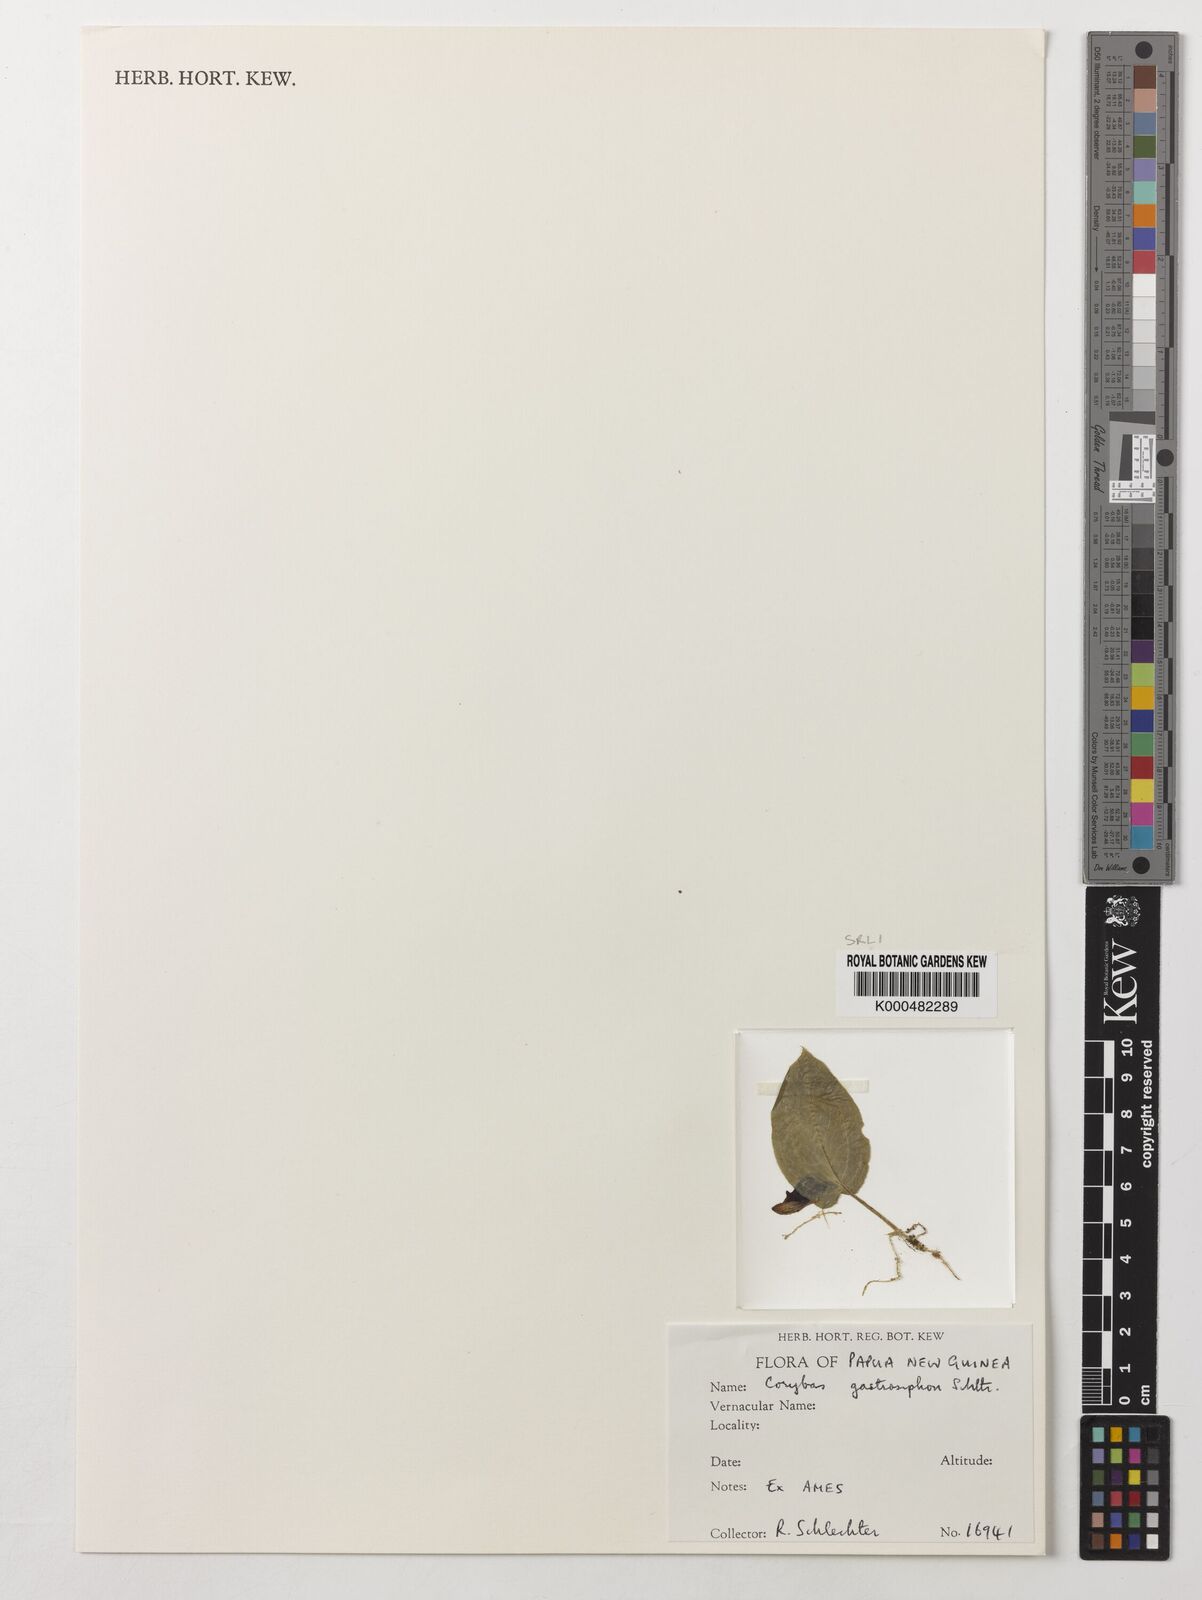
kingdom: Plantae
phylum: Tracheophyta
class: Liliopsida
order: Asparagales
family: Orchidaceae
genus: Corybas
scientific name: Corybas gastrosiphon
